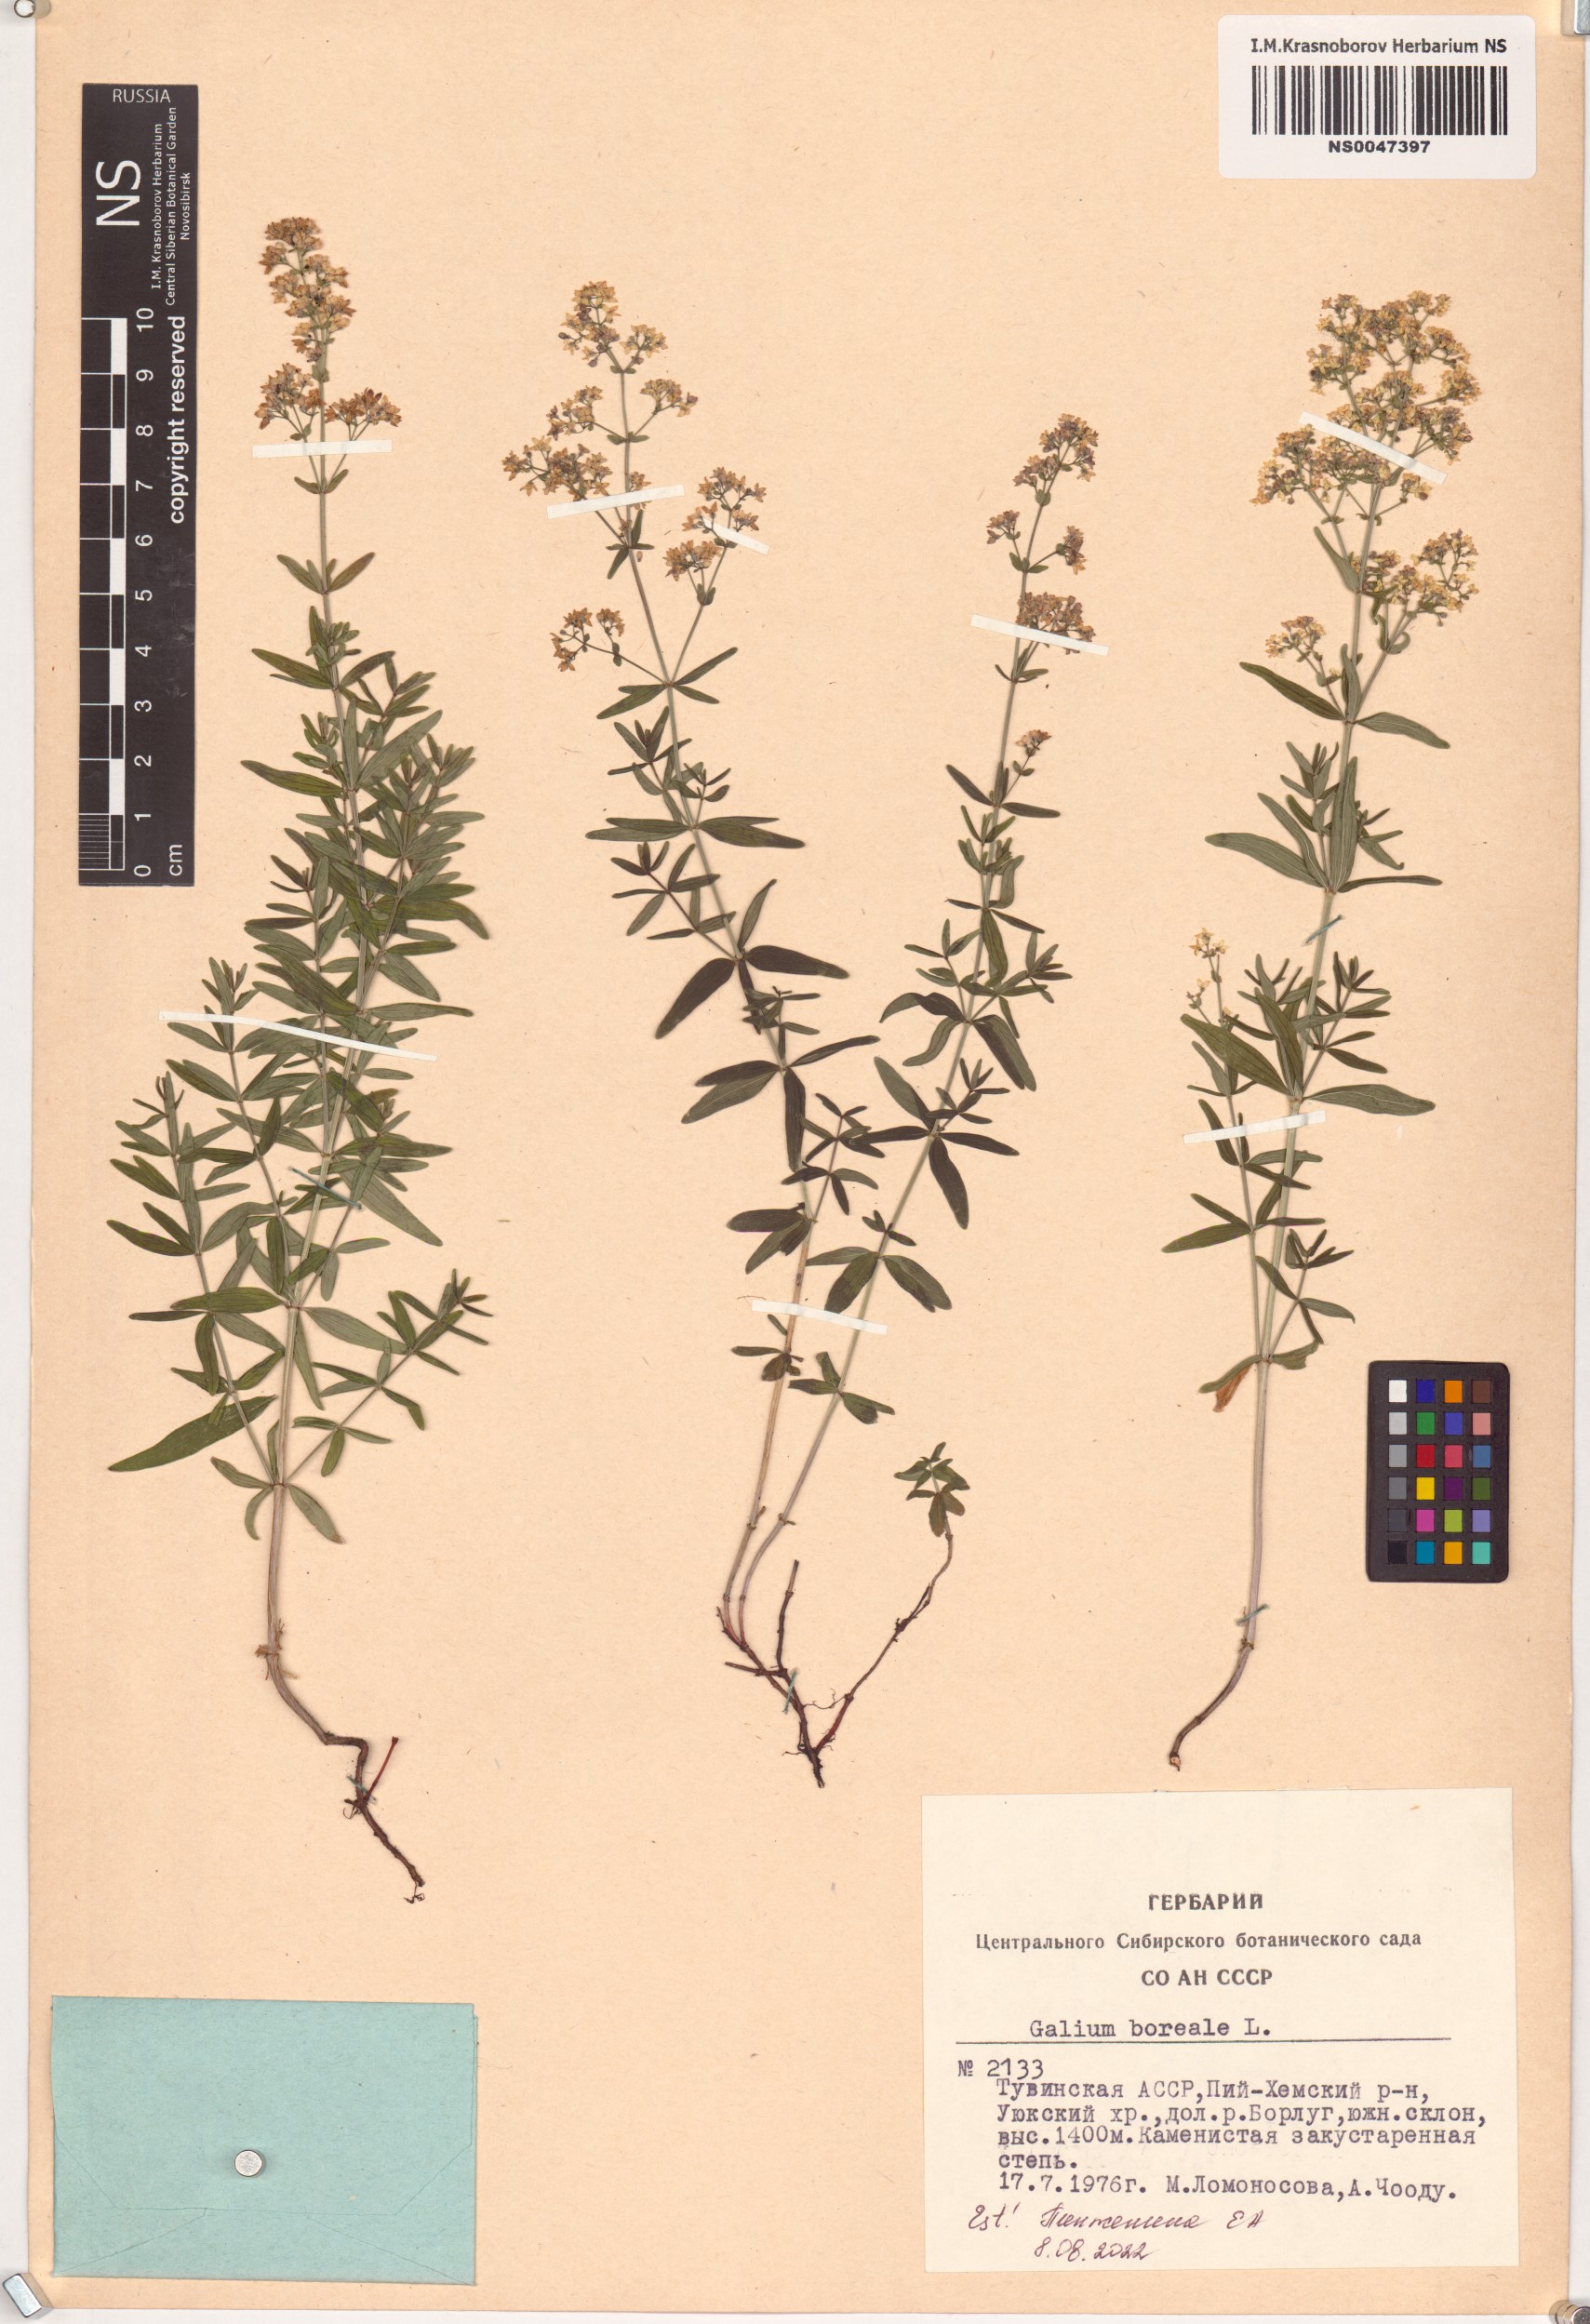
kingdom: Plantae
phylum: Tracheophyta
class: Magnoliopsida
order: Gentianales
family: Rubiaceae
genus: Galium
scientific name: Galium boreale
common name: Northern bedstraw
